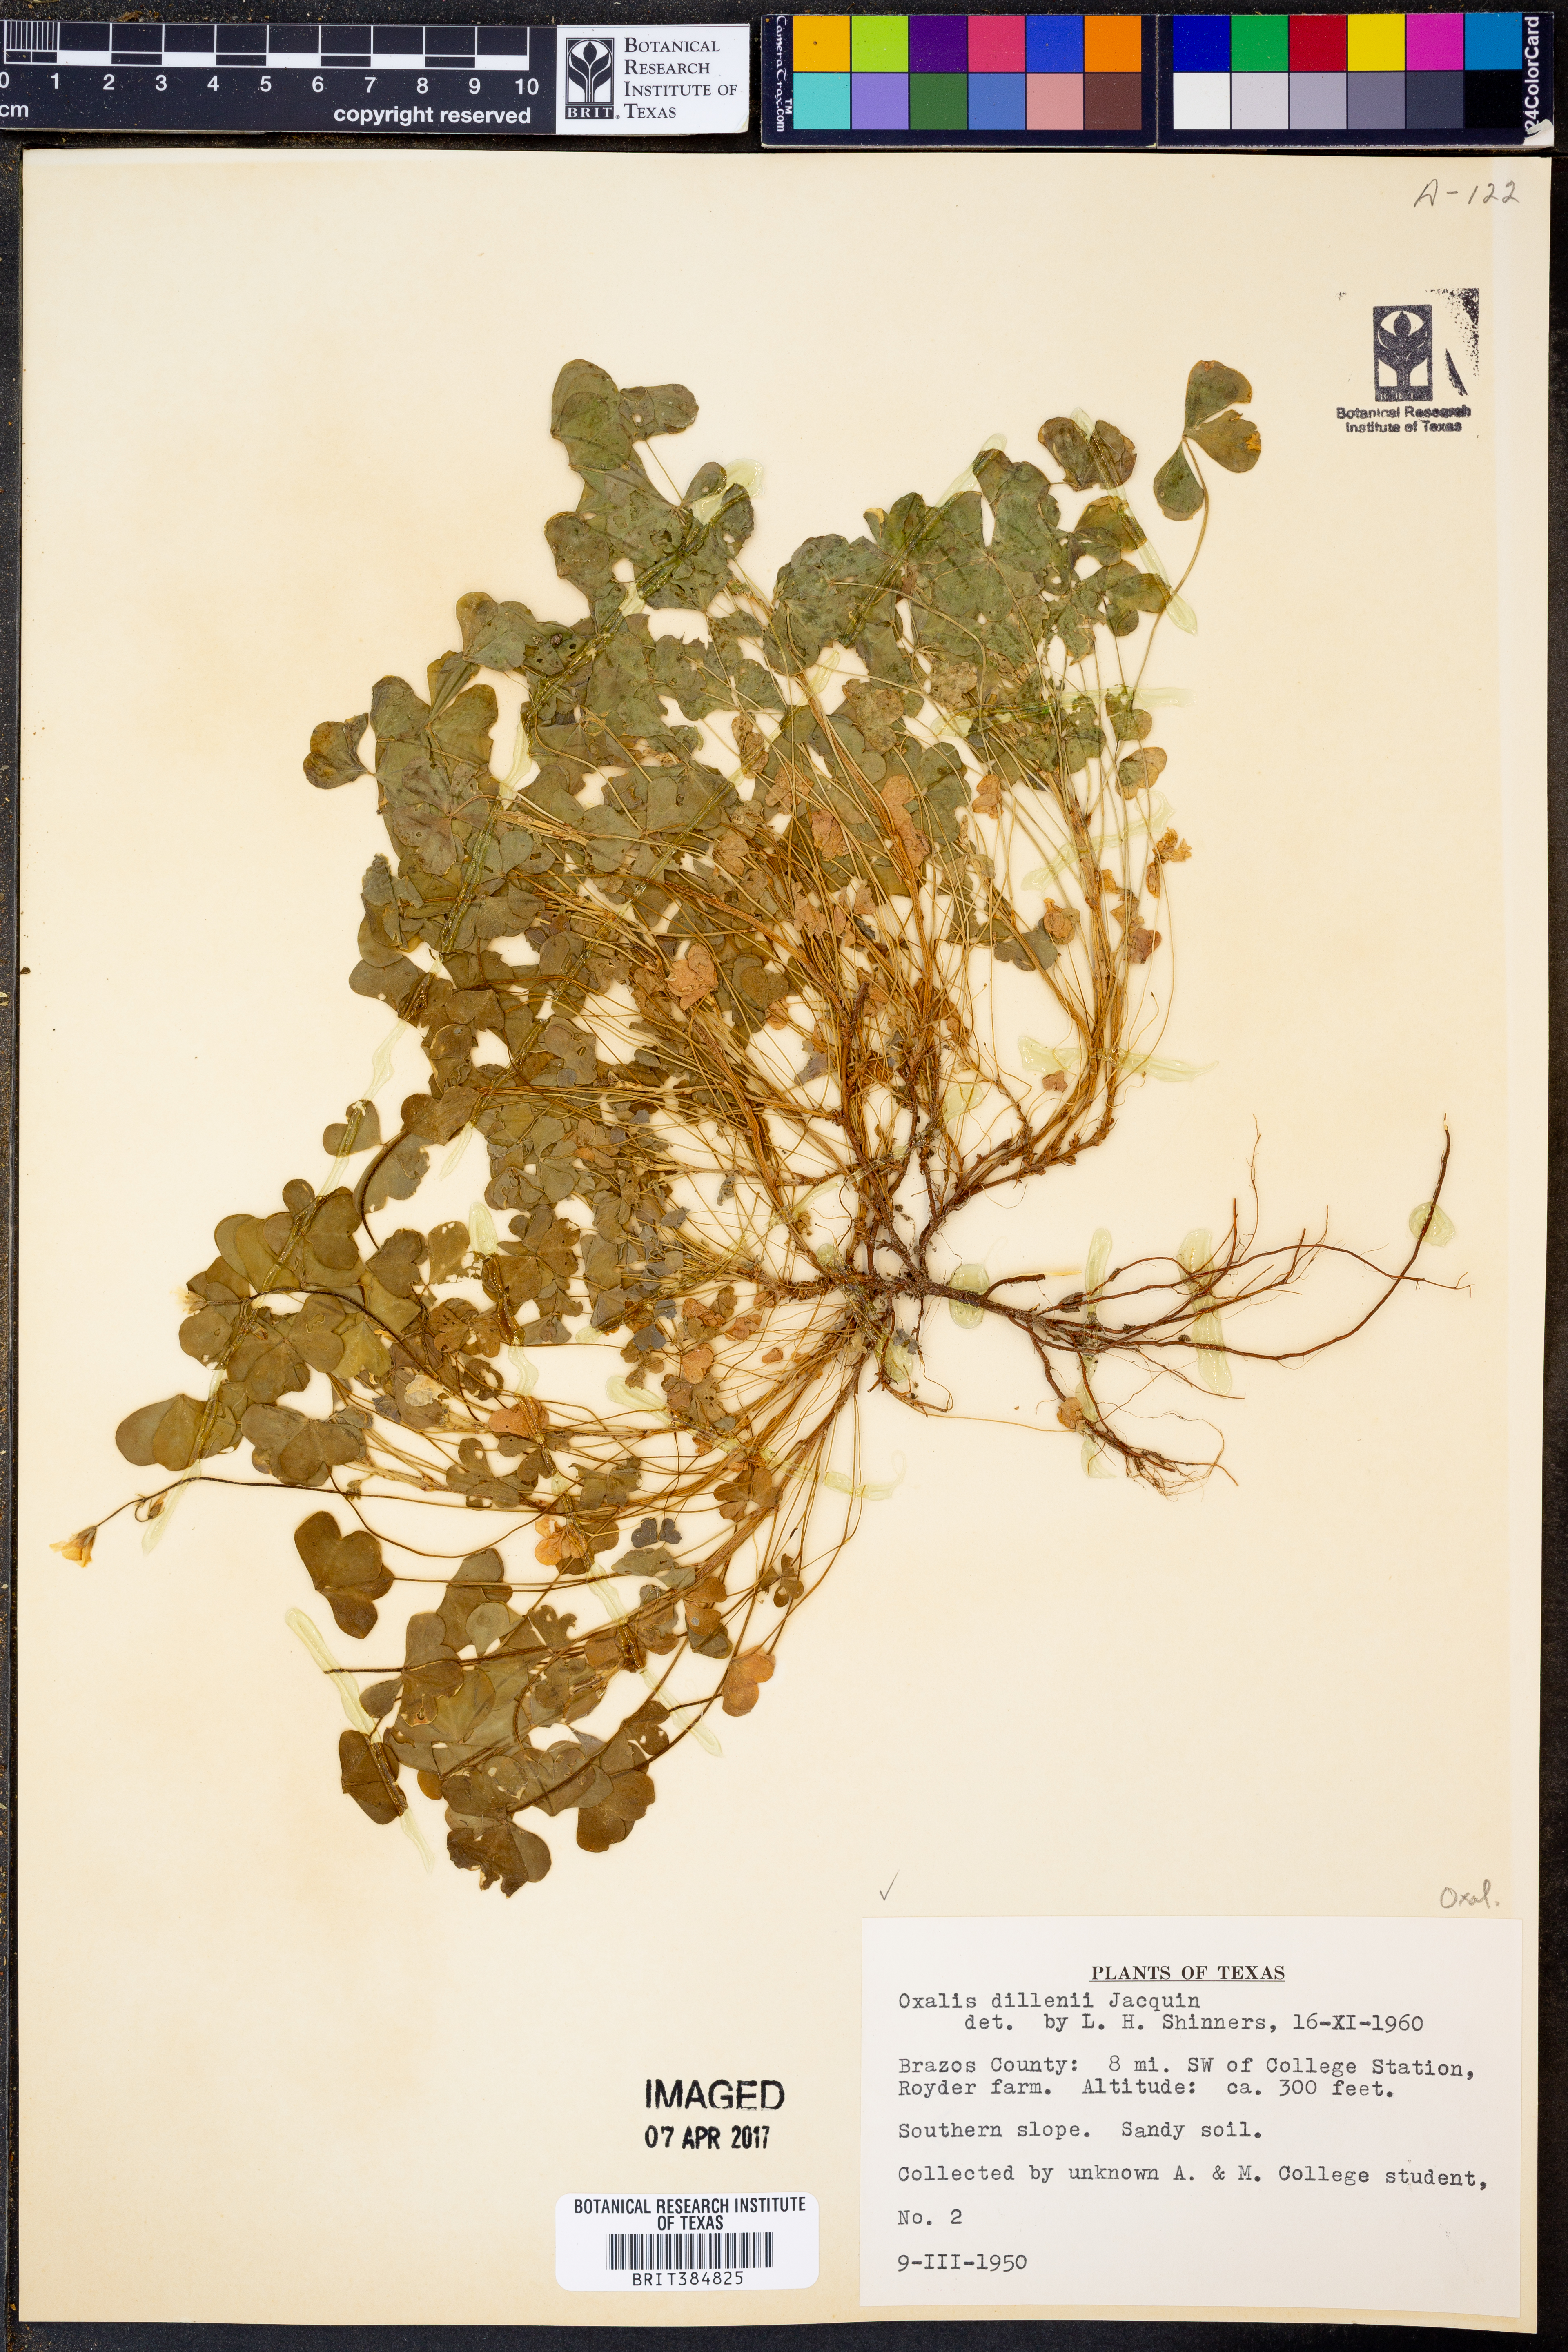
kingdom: Plantae
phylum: Tracheophyta
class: Magnoliopsida
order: Oxalidales
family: Oxalidaceae
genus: Oxalis
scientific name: Oxalis dillenii
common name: Sussex yellow-sorrel
